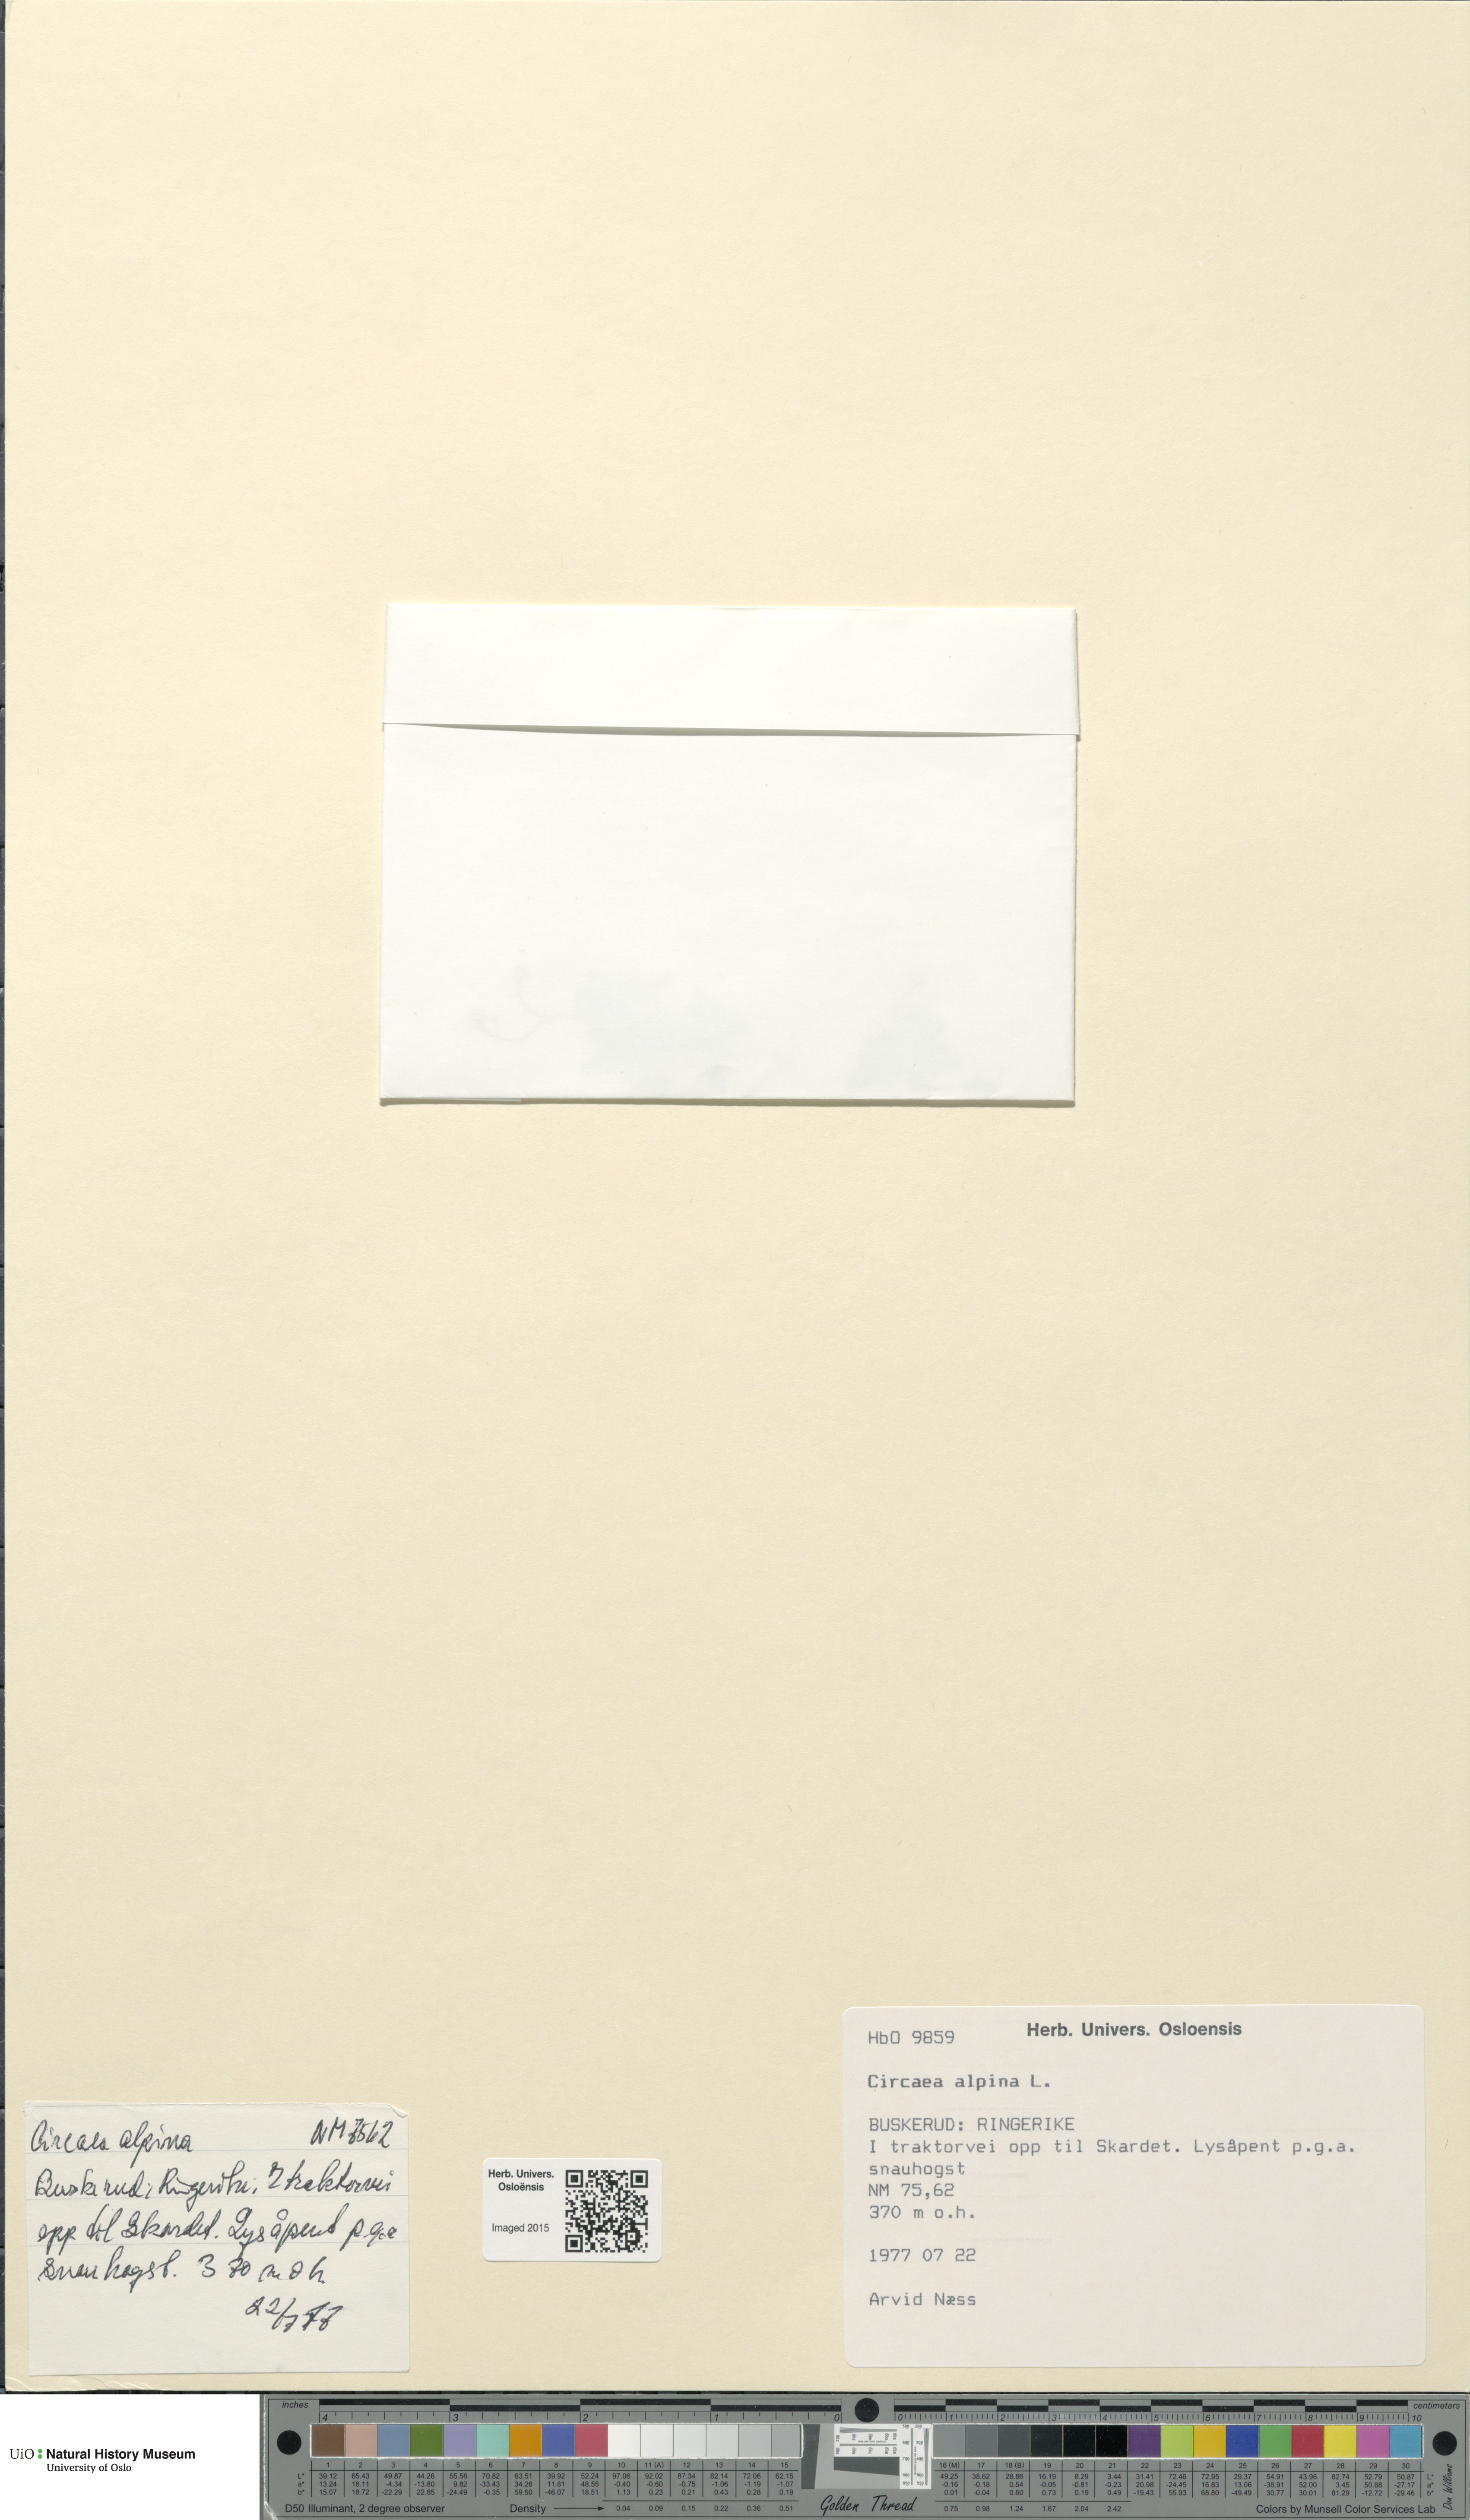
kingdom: Plantae
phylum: Tracheophyta
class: Magnoliopsida
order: Myrtales
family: Onagraceae
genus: Circaea
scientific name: Circaea alpina
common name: Alpine enchanter's-nightshade
